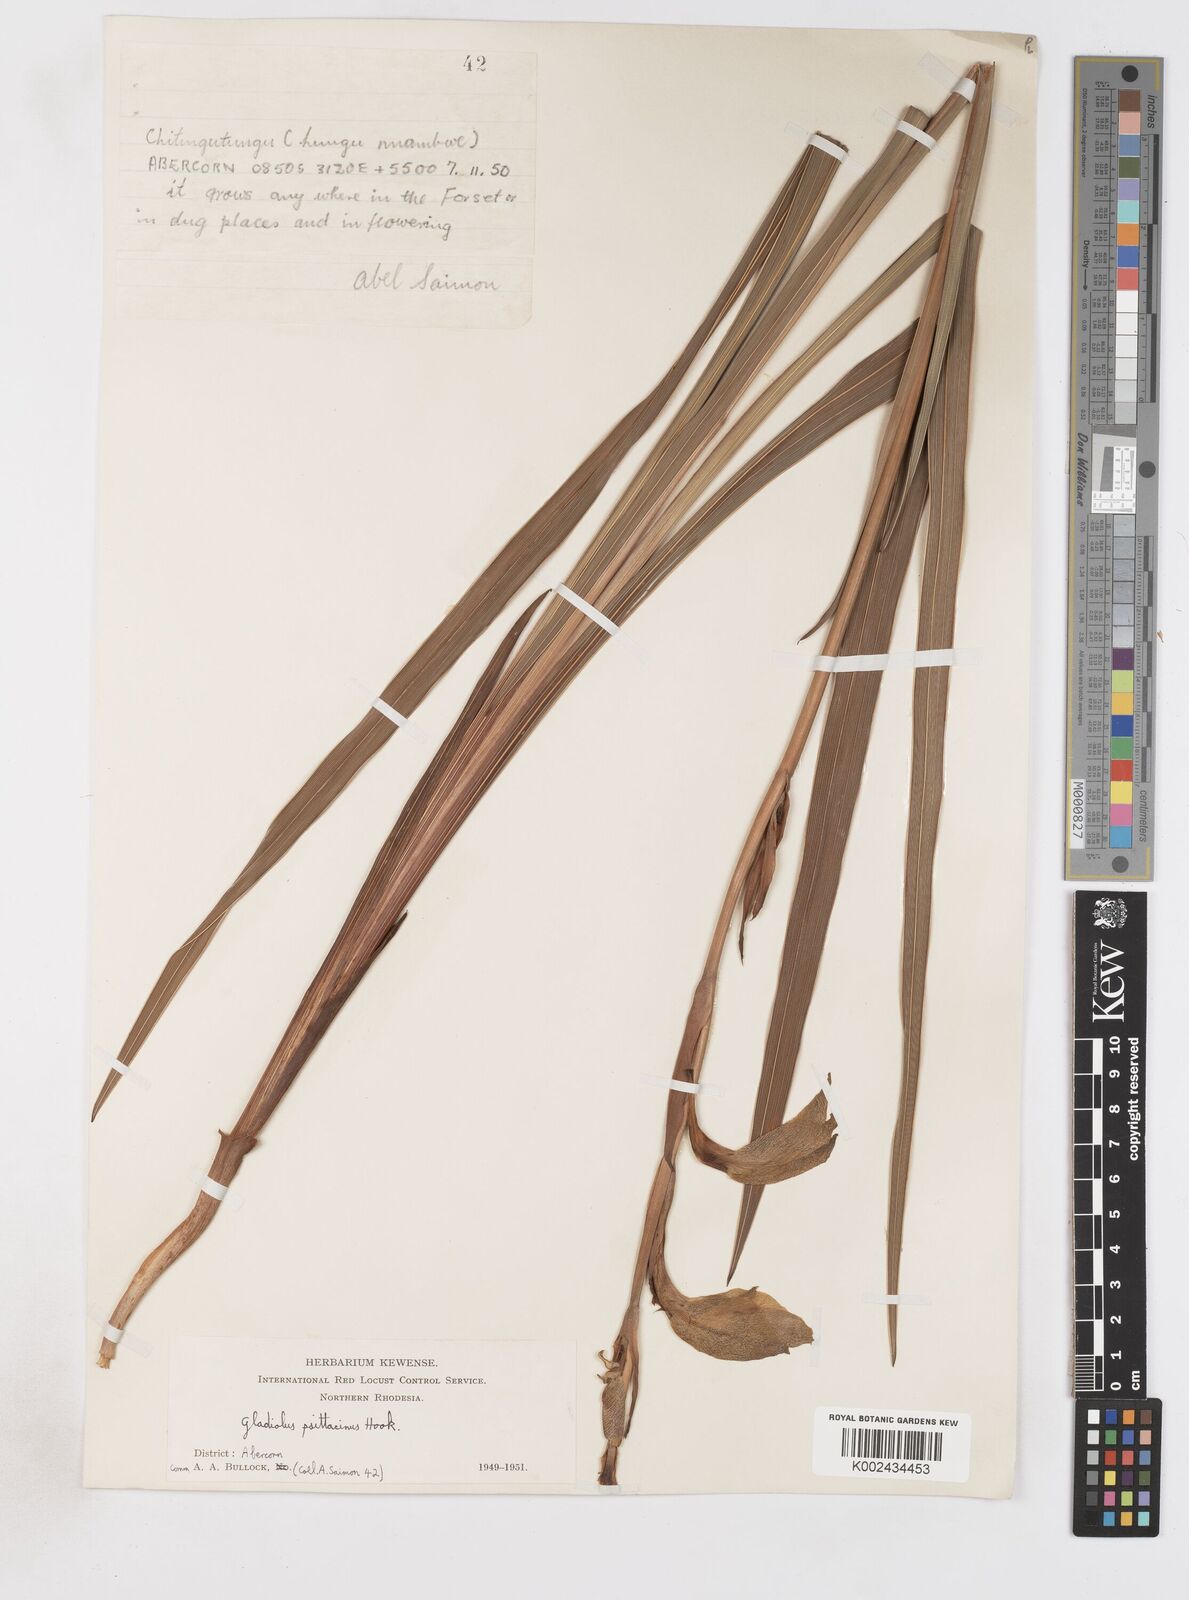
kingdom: Plantae
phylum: Tracheophyta
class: Liliopsida
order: Asparagales
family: Iridaceae
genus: Gladiolus
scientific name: Gladiolus dalenii
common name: Cornflag
